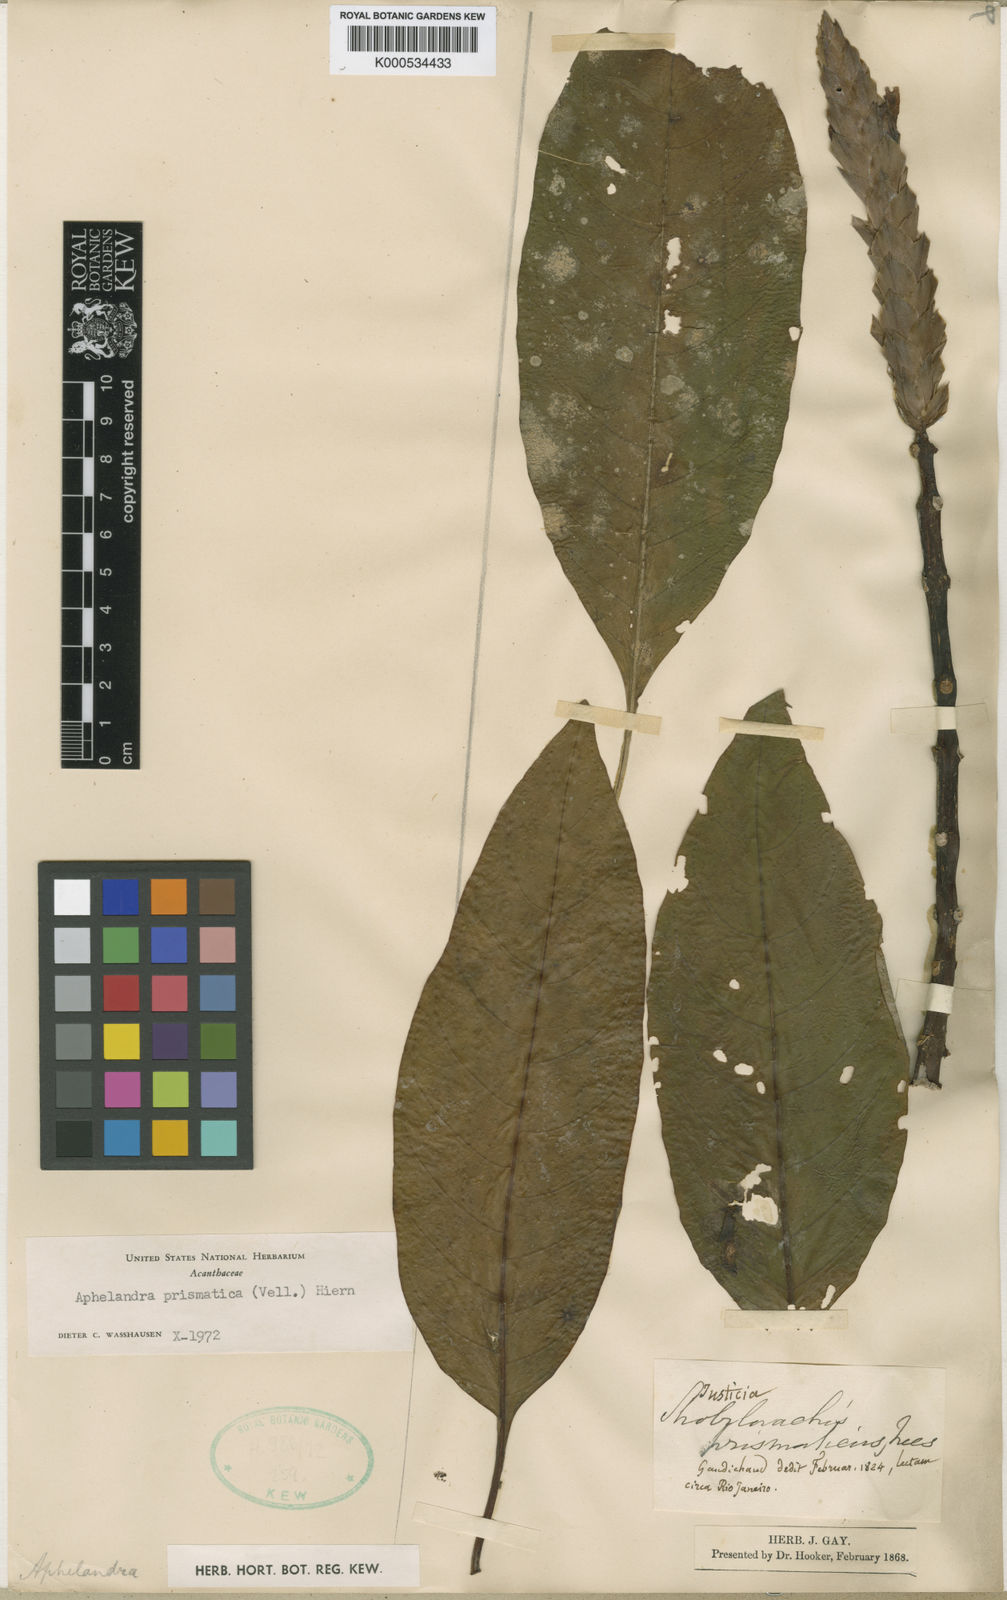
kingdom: Plantae
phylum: Tracheophyta
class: Magnoliopsida
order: Lamiales
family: Acanthaceae
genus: Aphelandra
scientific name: Aphelandra prismatica
